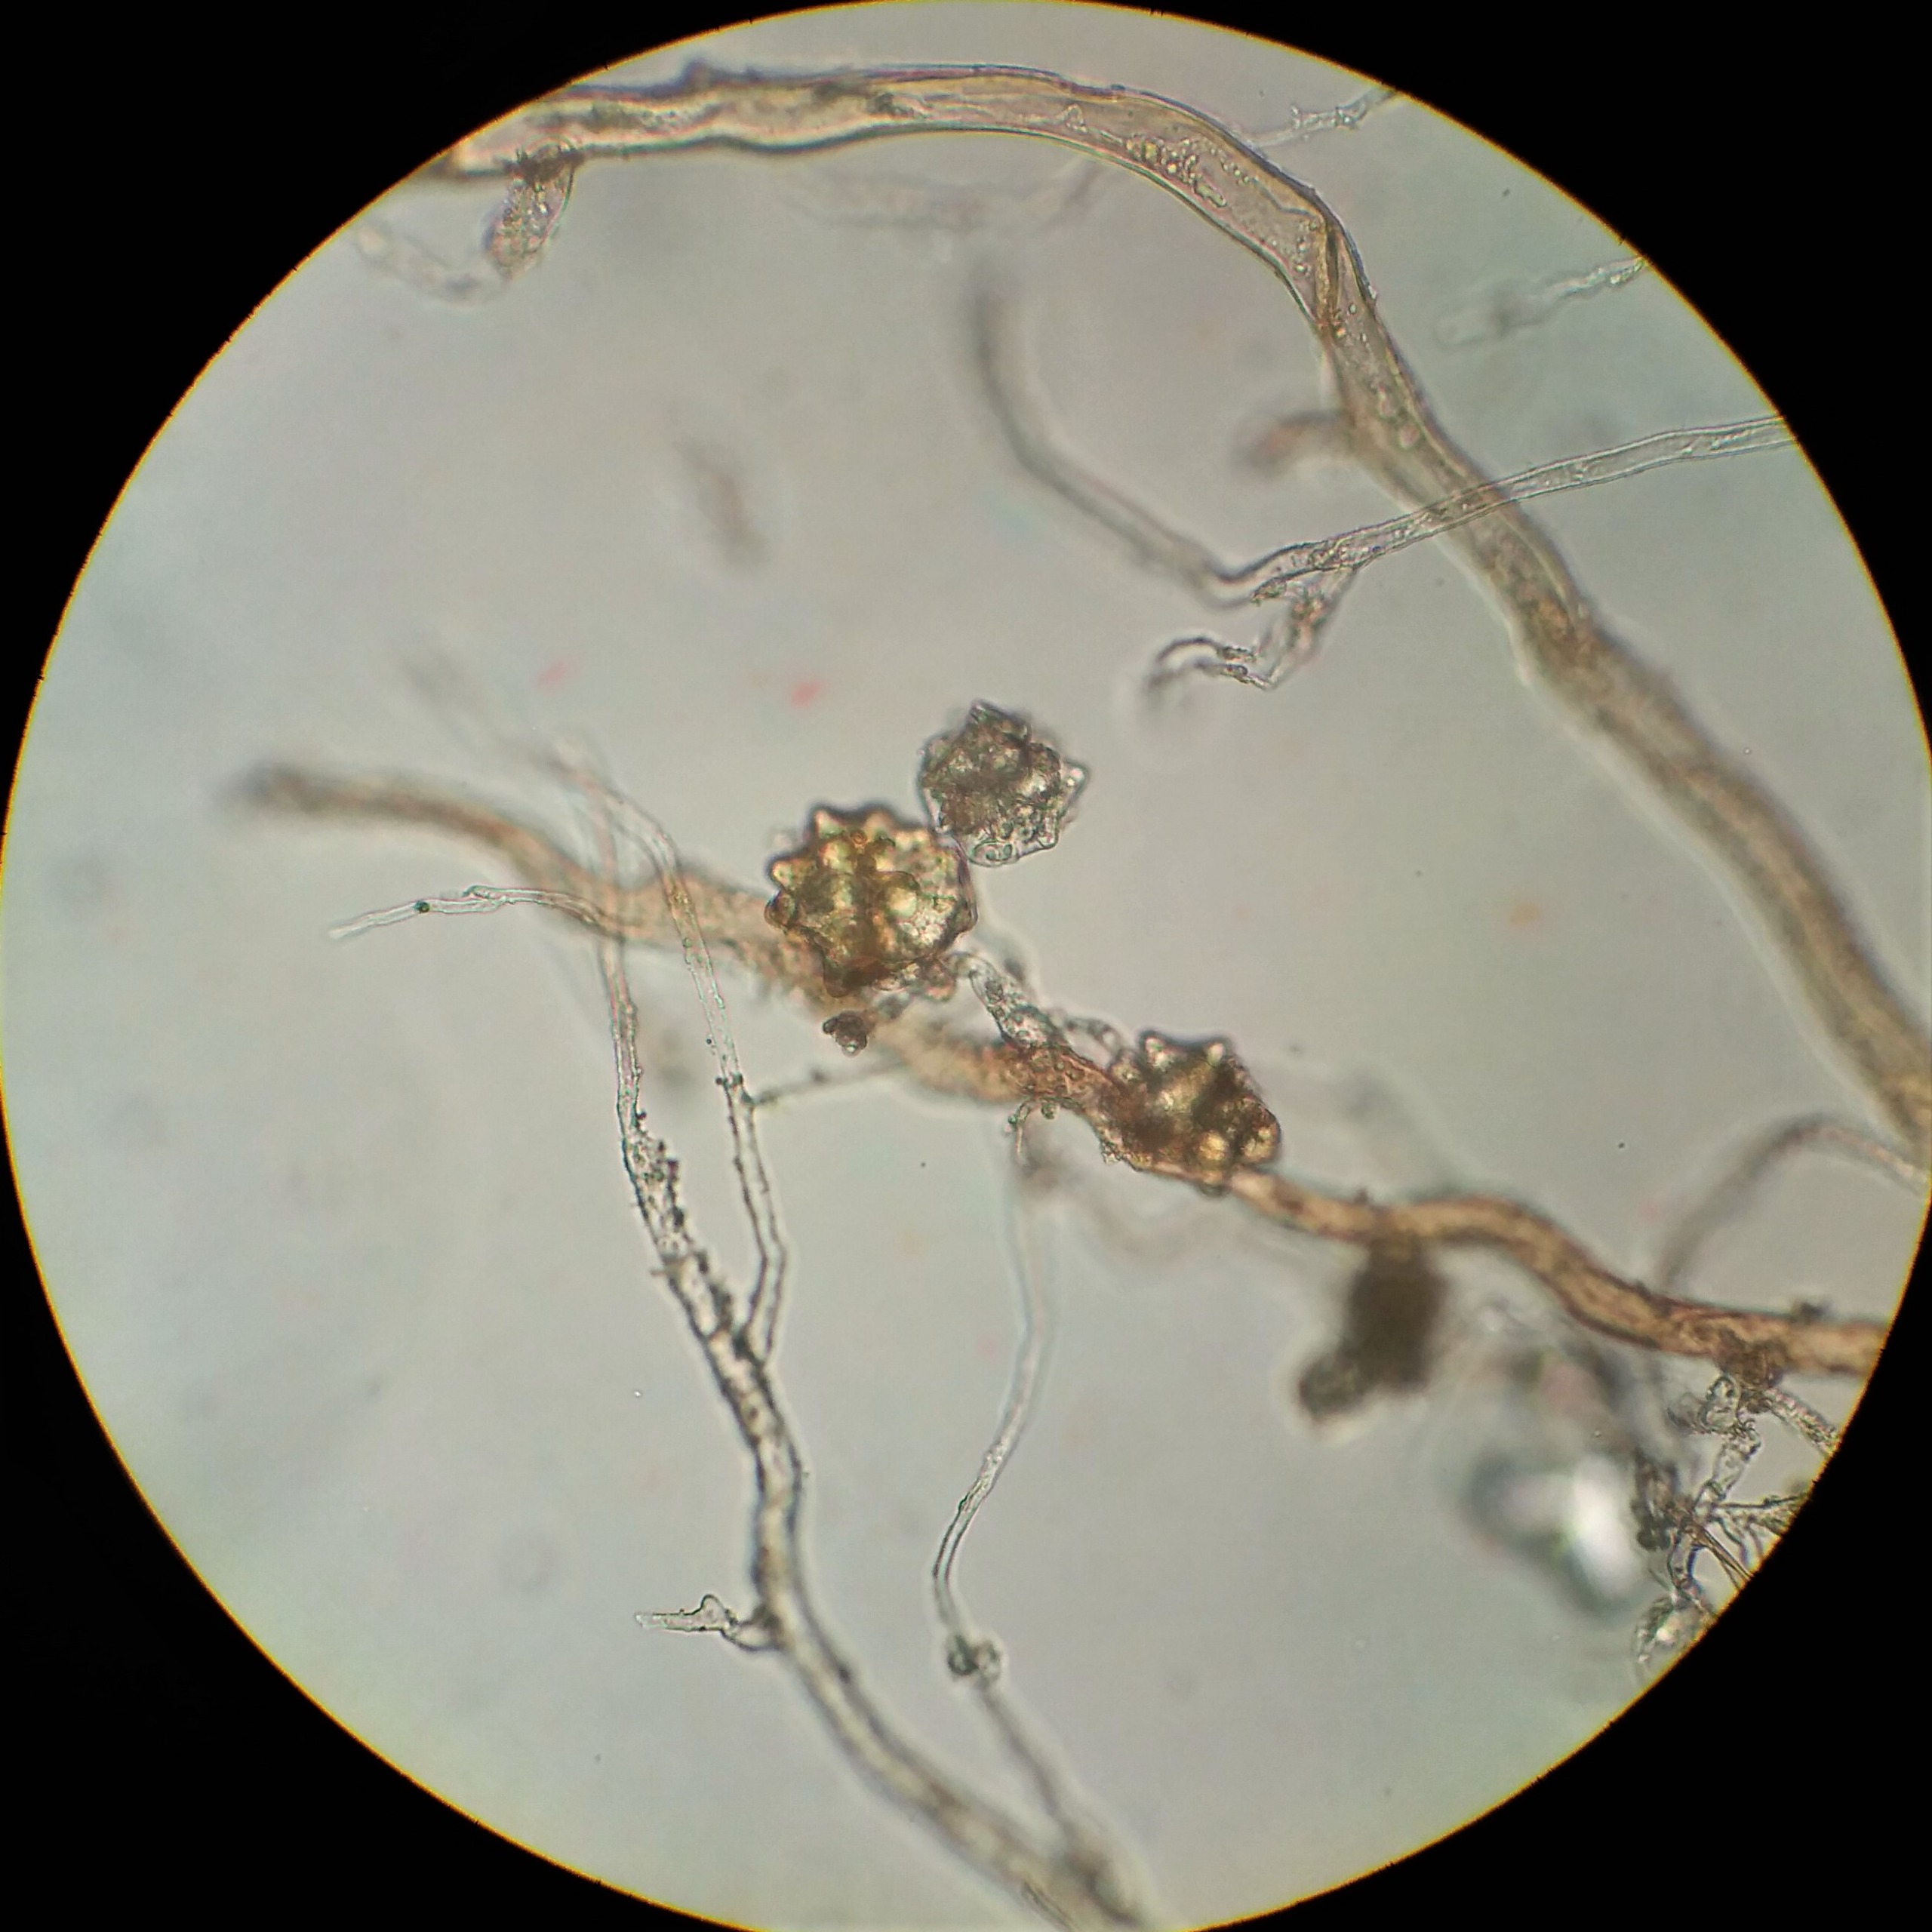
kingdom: Plantae
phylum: Bryophyta
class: Bryopsida
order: Bryales
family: Mniaceae
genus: Pohlia
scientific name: Pohlia lutescens
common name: Gul nikkemos
